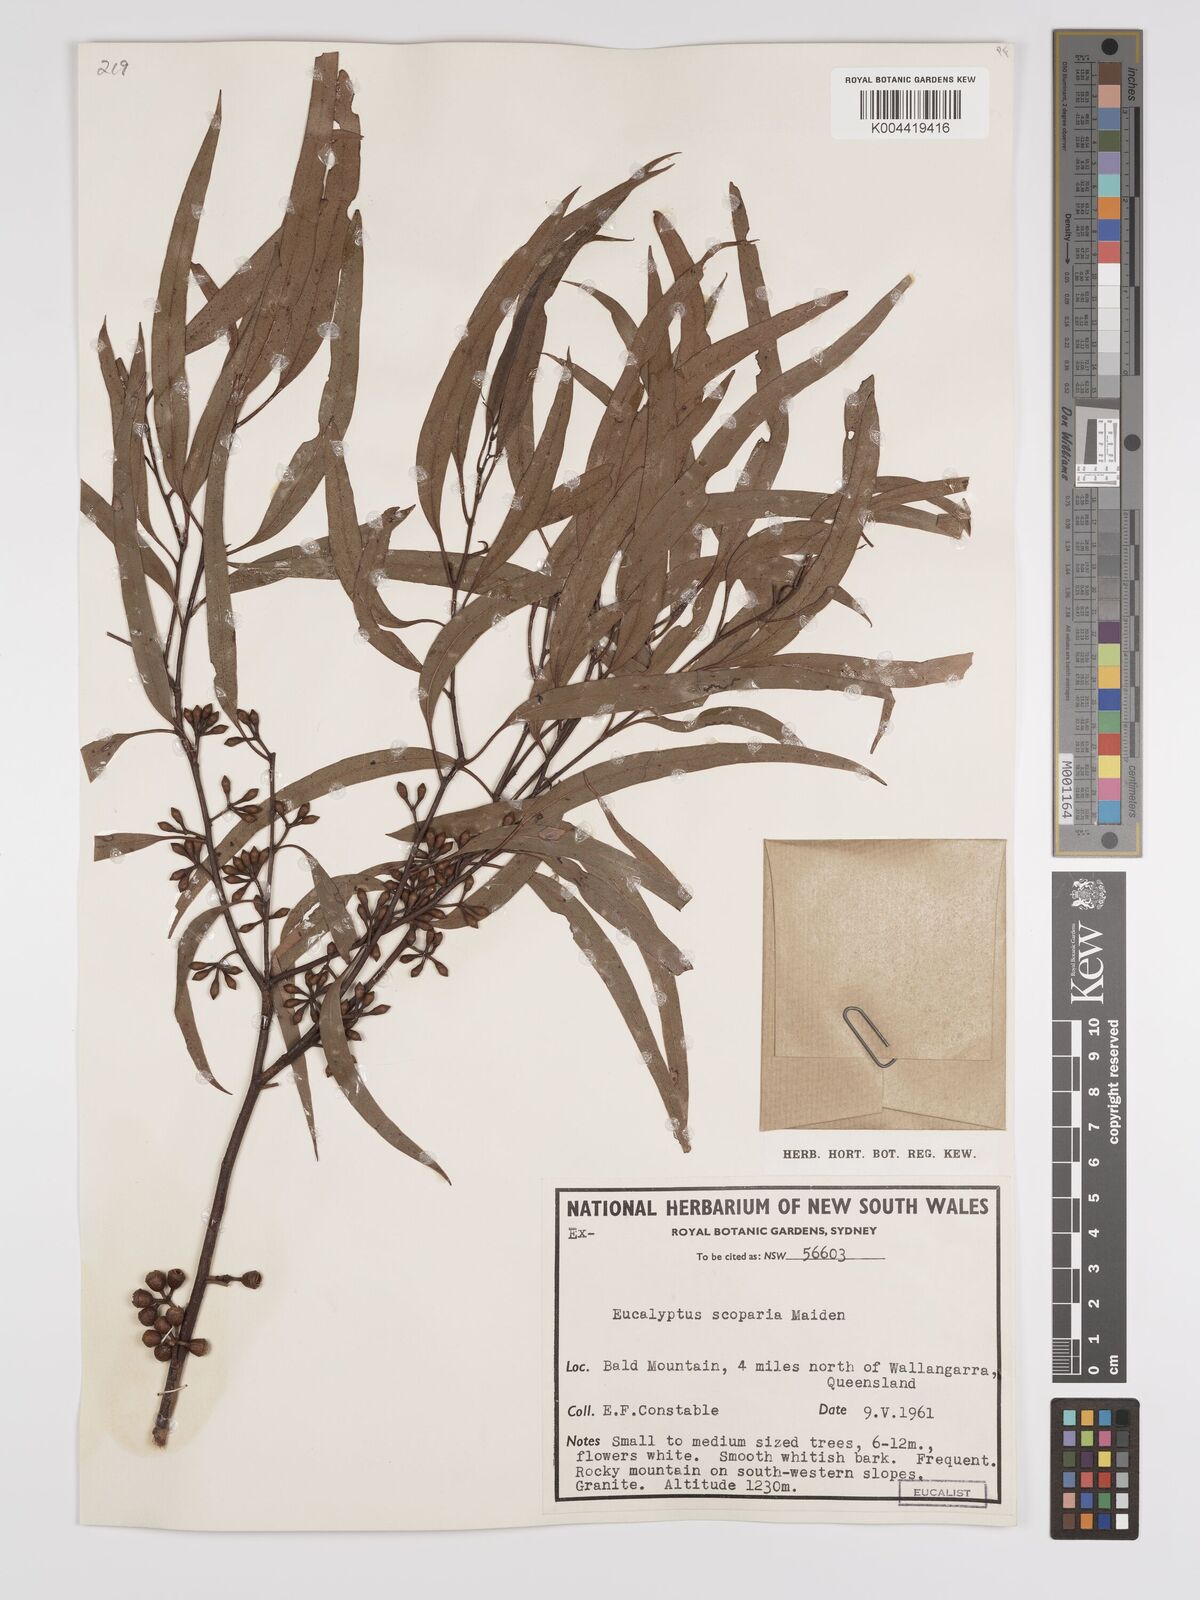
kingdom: Plantae
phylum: Tracheophyta
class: Magnoliopsida
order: Myrtales
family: Myrtaceae
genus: Eucalyptus
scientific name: Eucalyptus scoparia
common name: Wallangarra white gum
